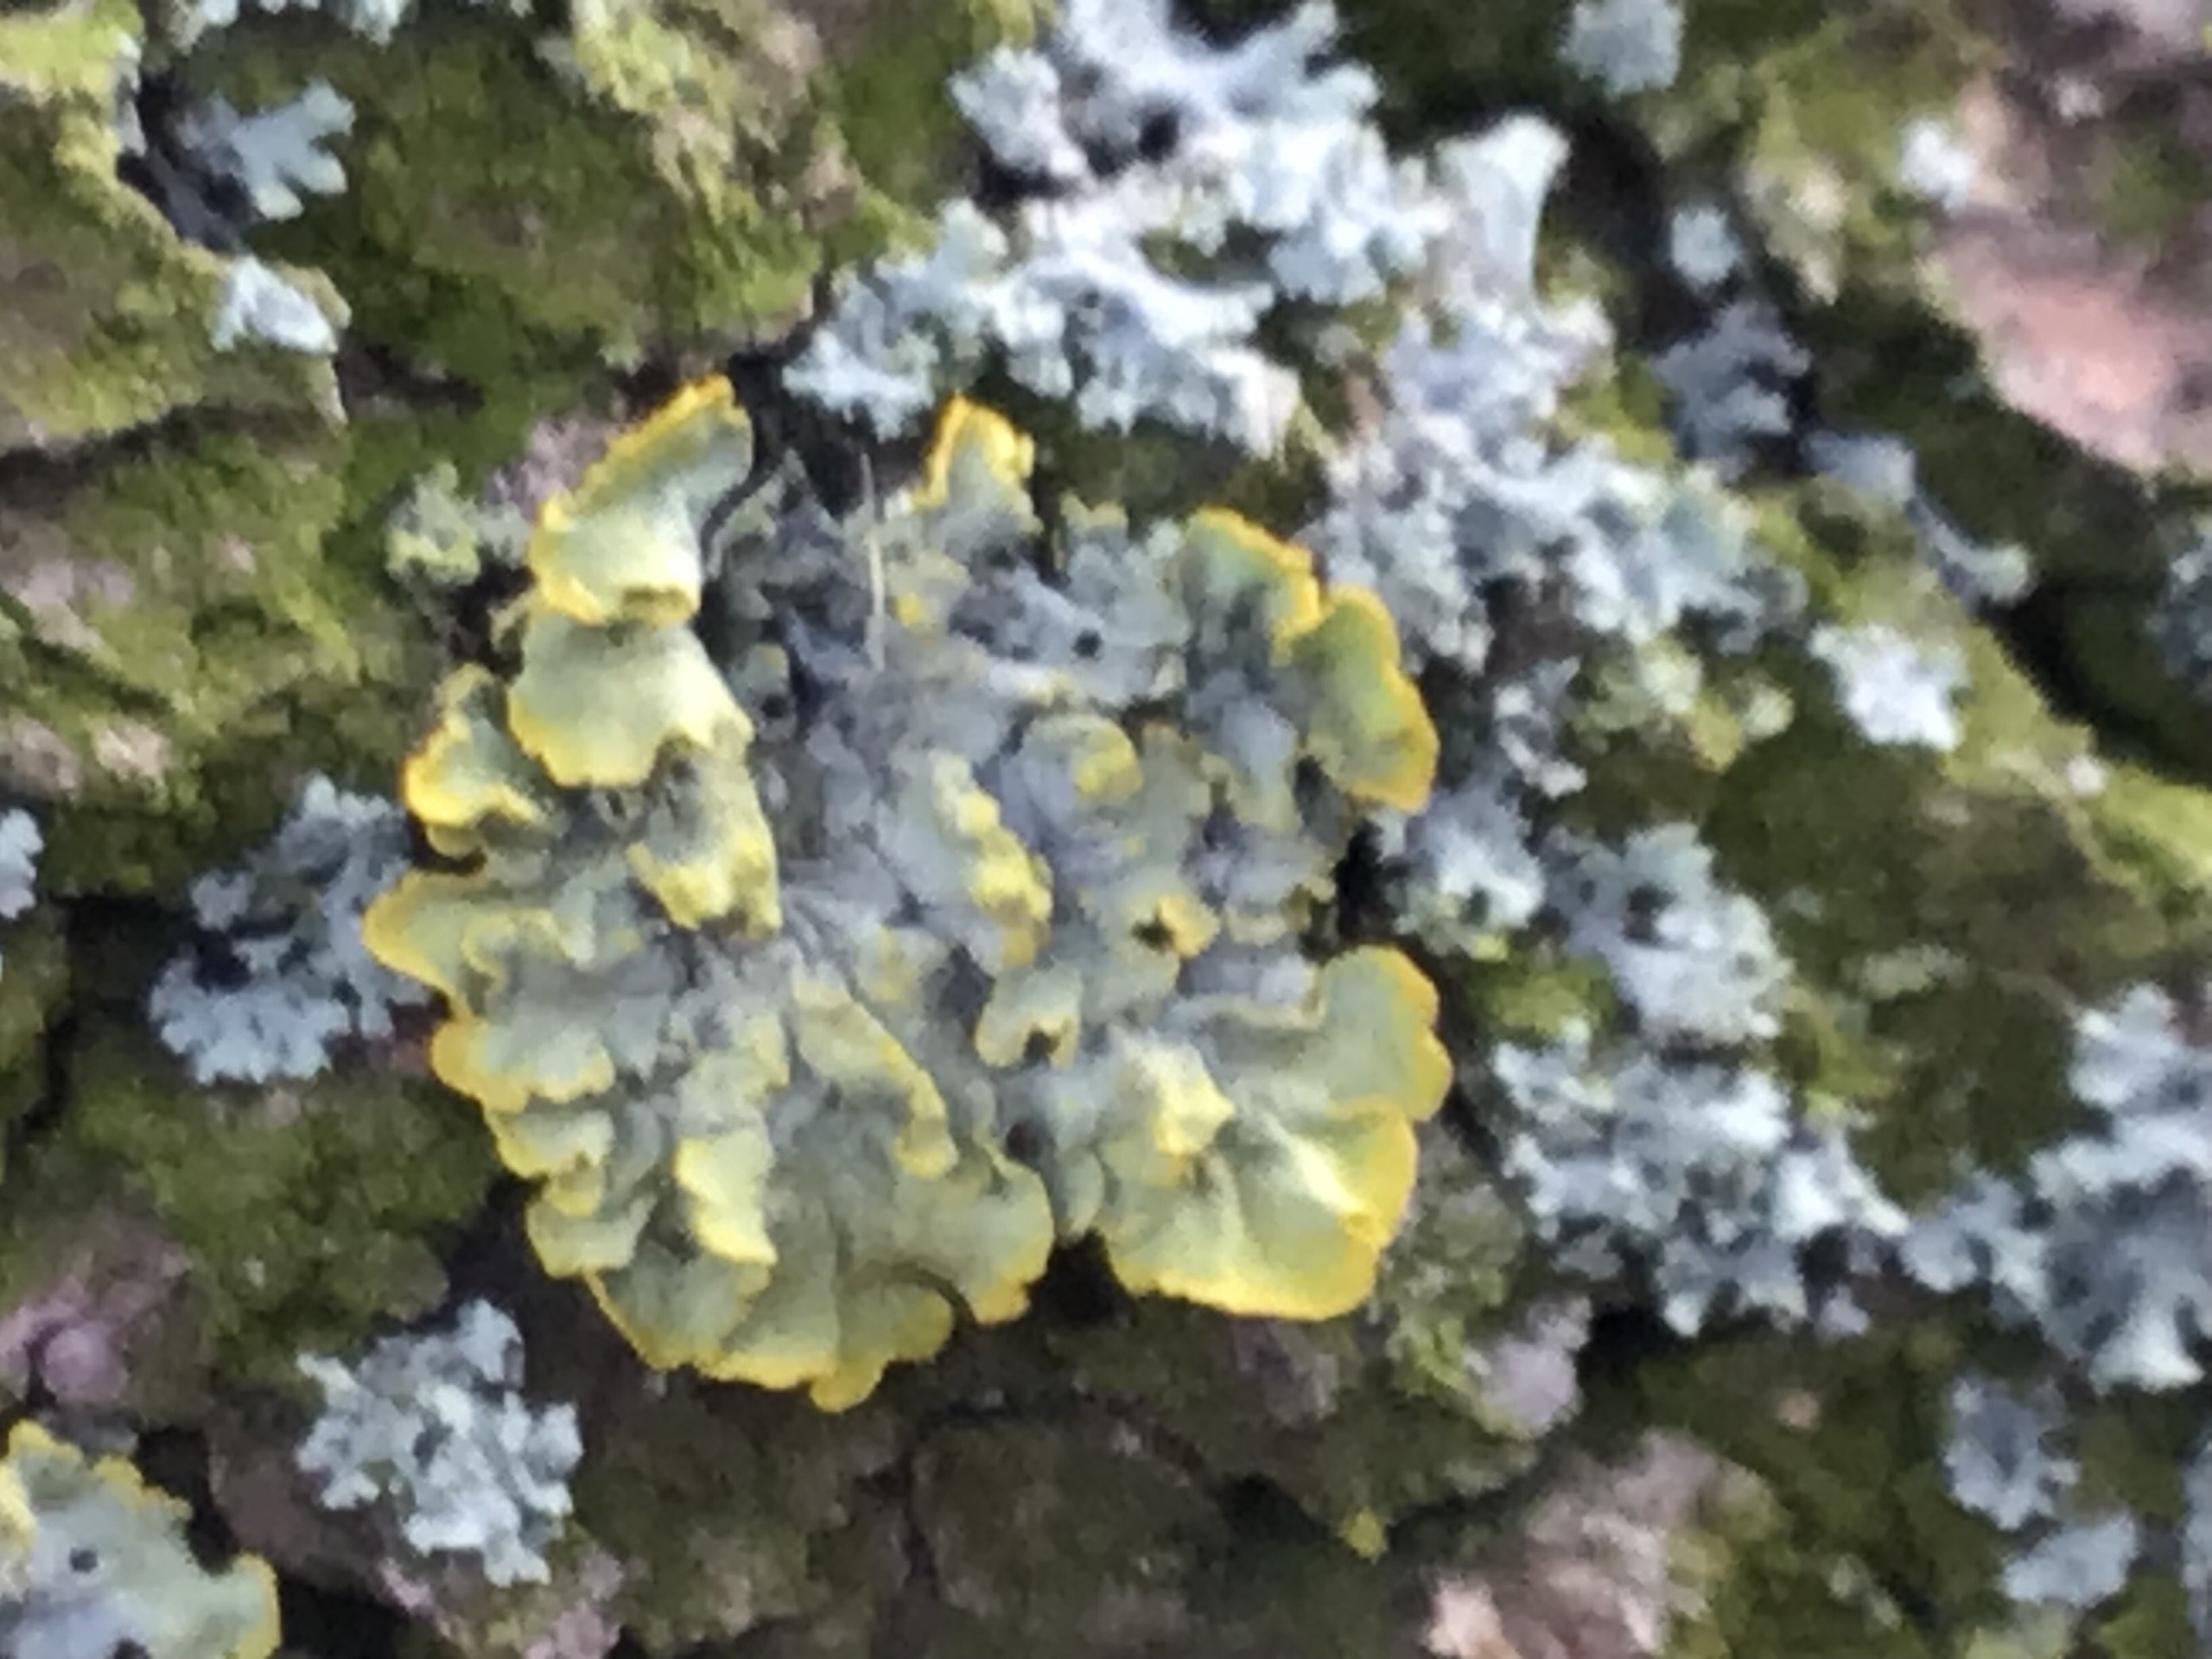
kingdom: Fungi
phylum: Ascomycota
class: Lecanoromycetes
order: Teloschistales
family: Teloschistaceae
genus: Xanthoria
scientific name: Xanthoria parietina
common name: Almindelig væggelav
